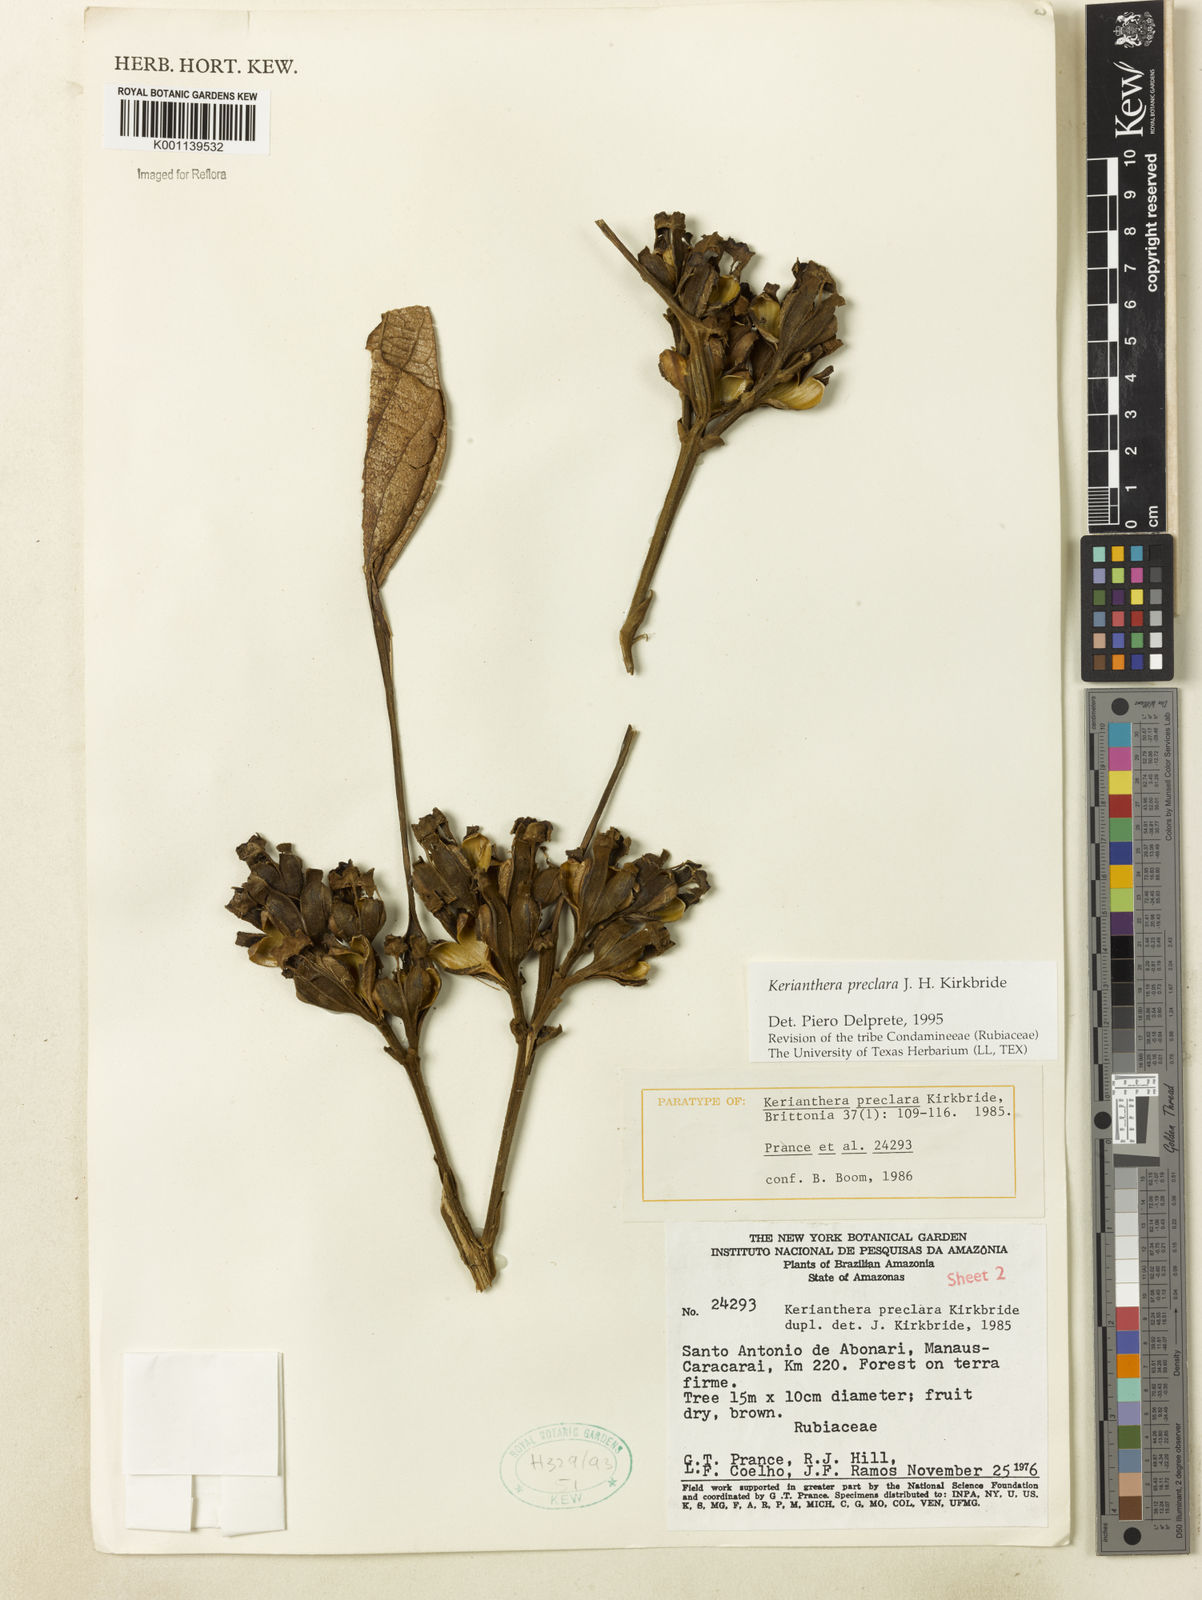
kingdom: Plantae
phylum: Tracheophyta
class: Magnoliopsida
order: Gentianales
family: Rubiaceae
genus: Kerianthera
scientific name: Kerianthera preclara
